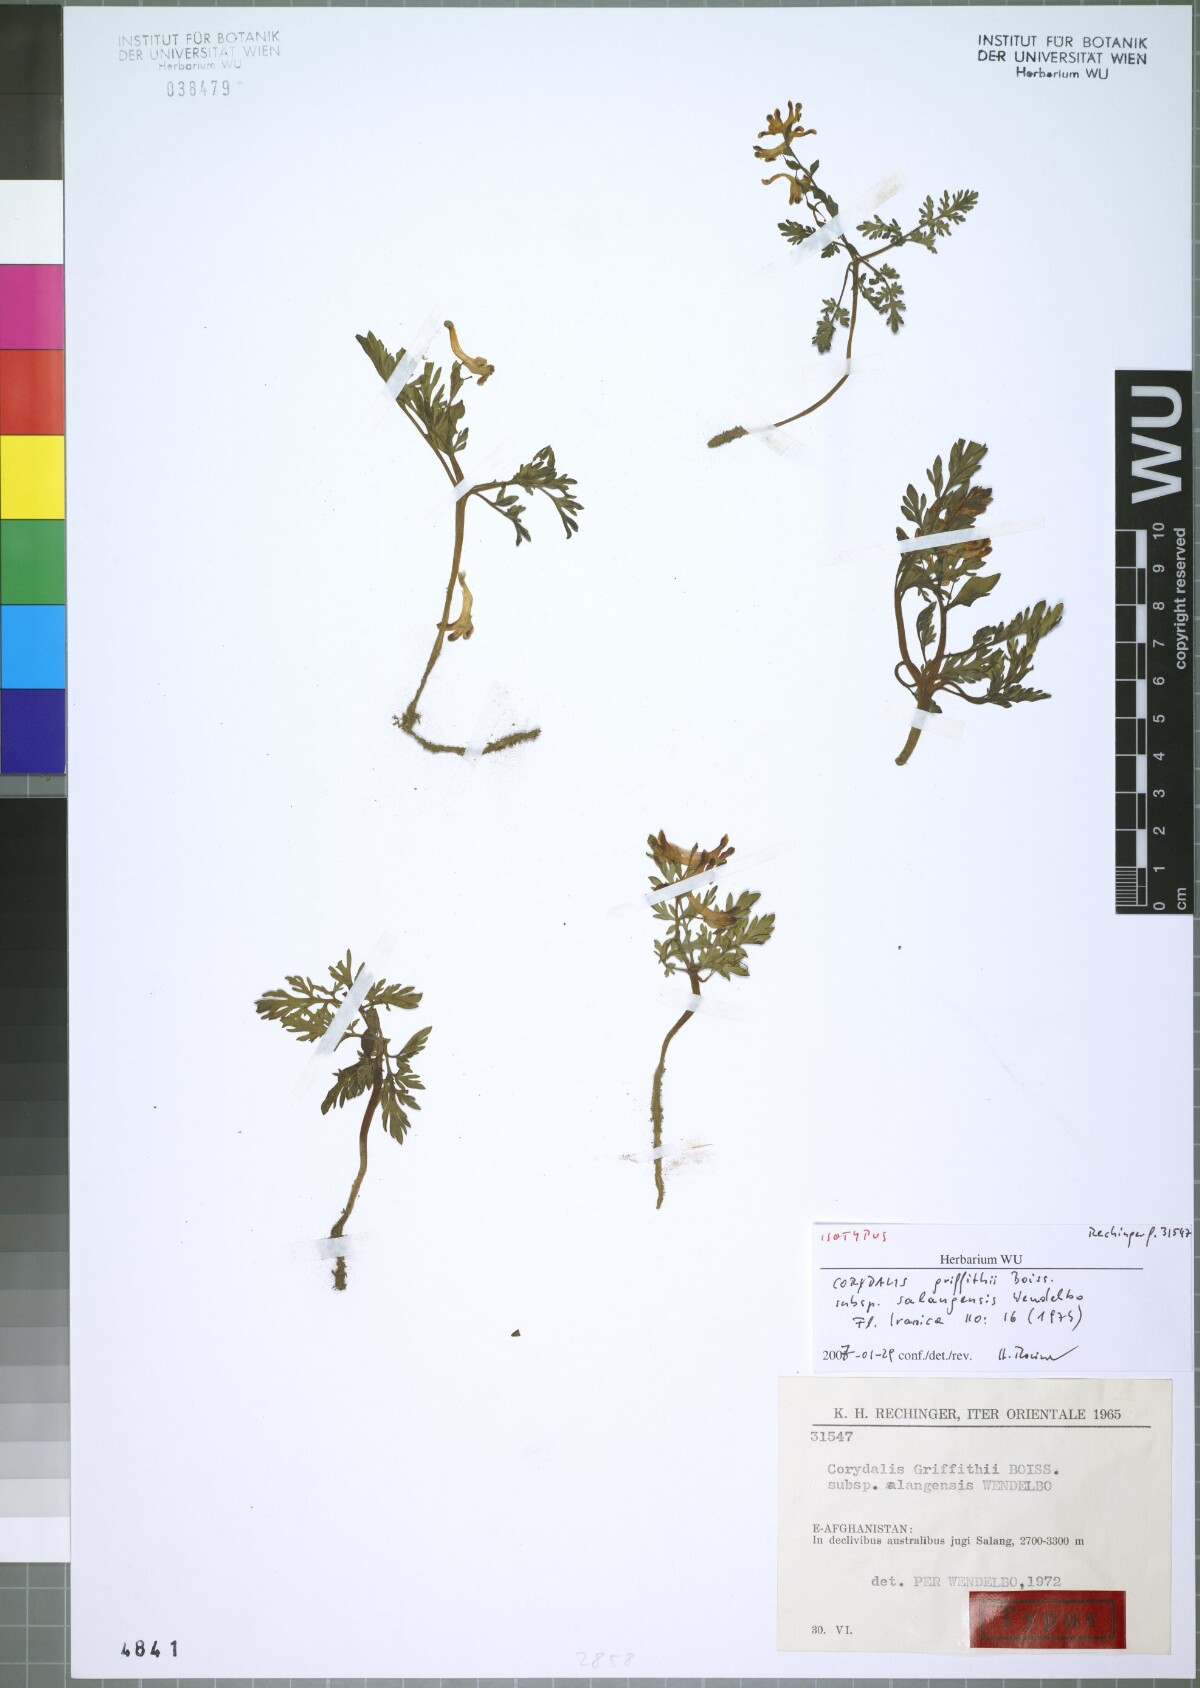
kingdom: Plantae
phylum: Tracheophyta
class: Magnoliopsida
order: Ranunculales
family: Papaveraceae
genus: Corydalis
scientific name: Corydalis griffithii
